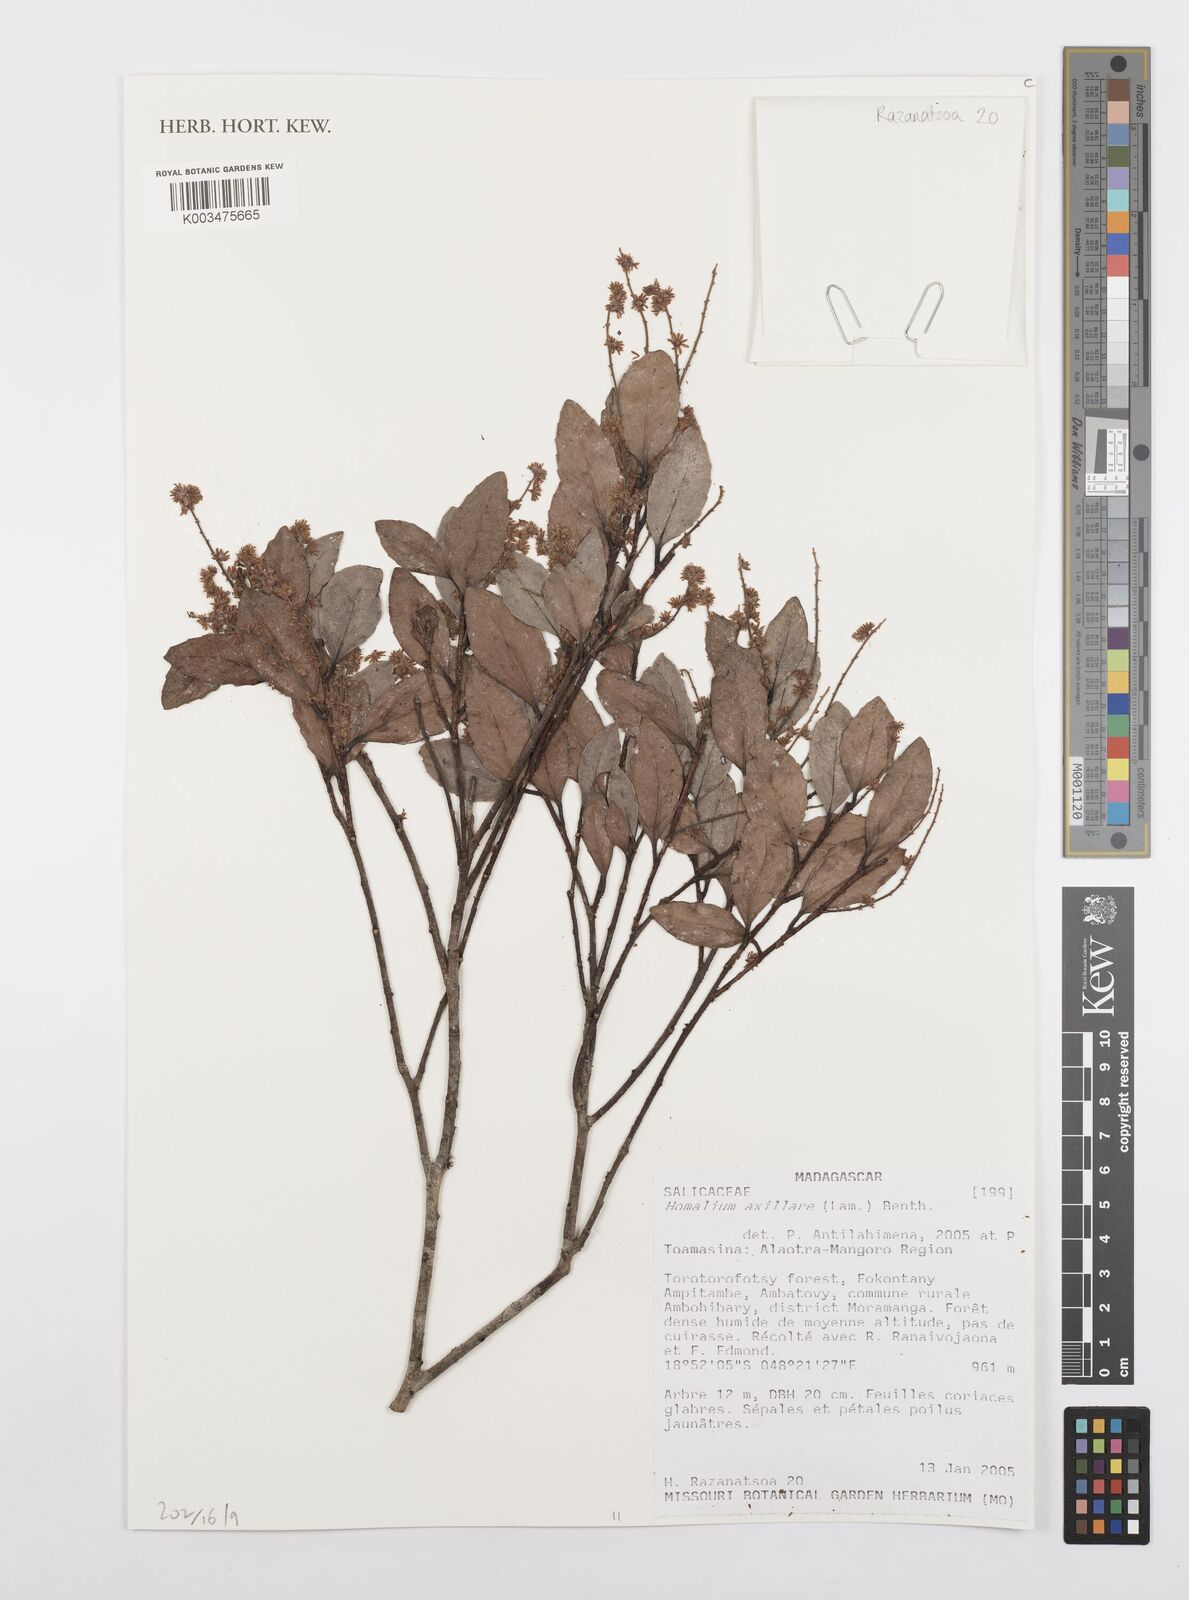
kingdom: Plantae
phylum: Tracheophyta
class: Magnoliopsida
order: Malpighiales
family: Salicaceae
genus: Homalium
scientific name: Homalium axillare
